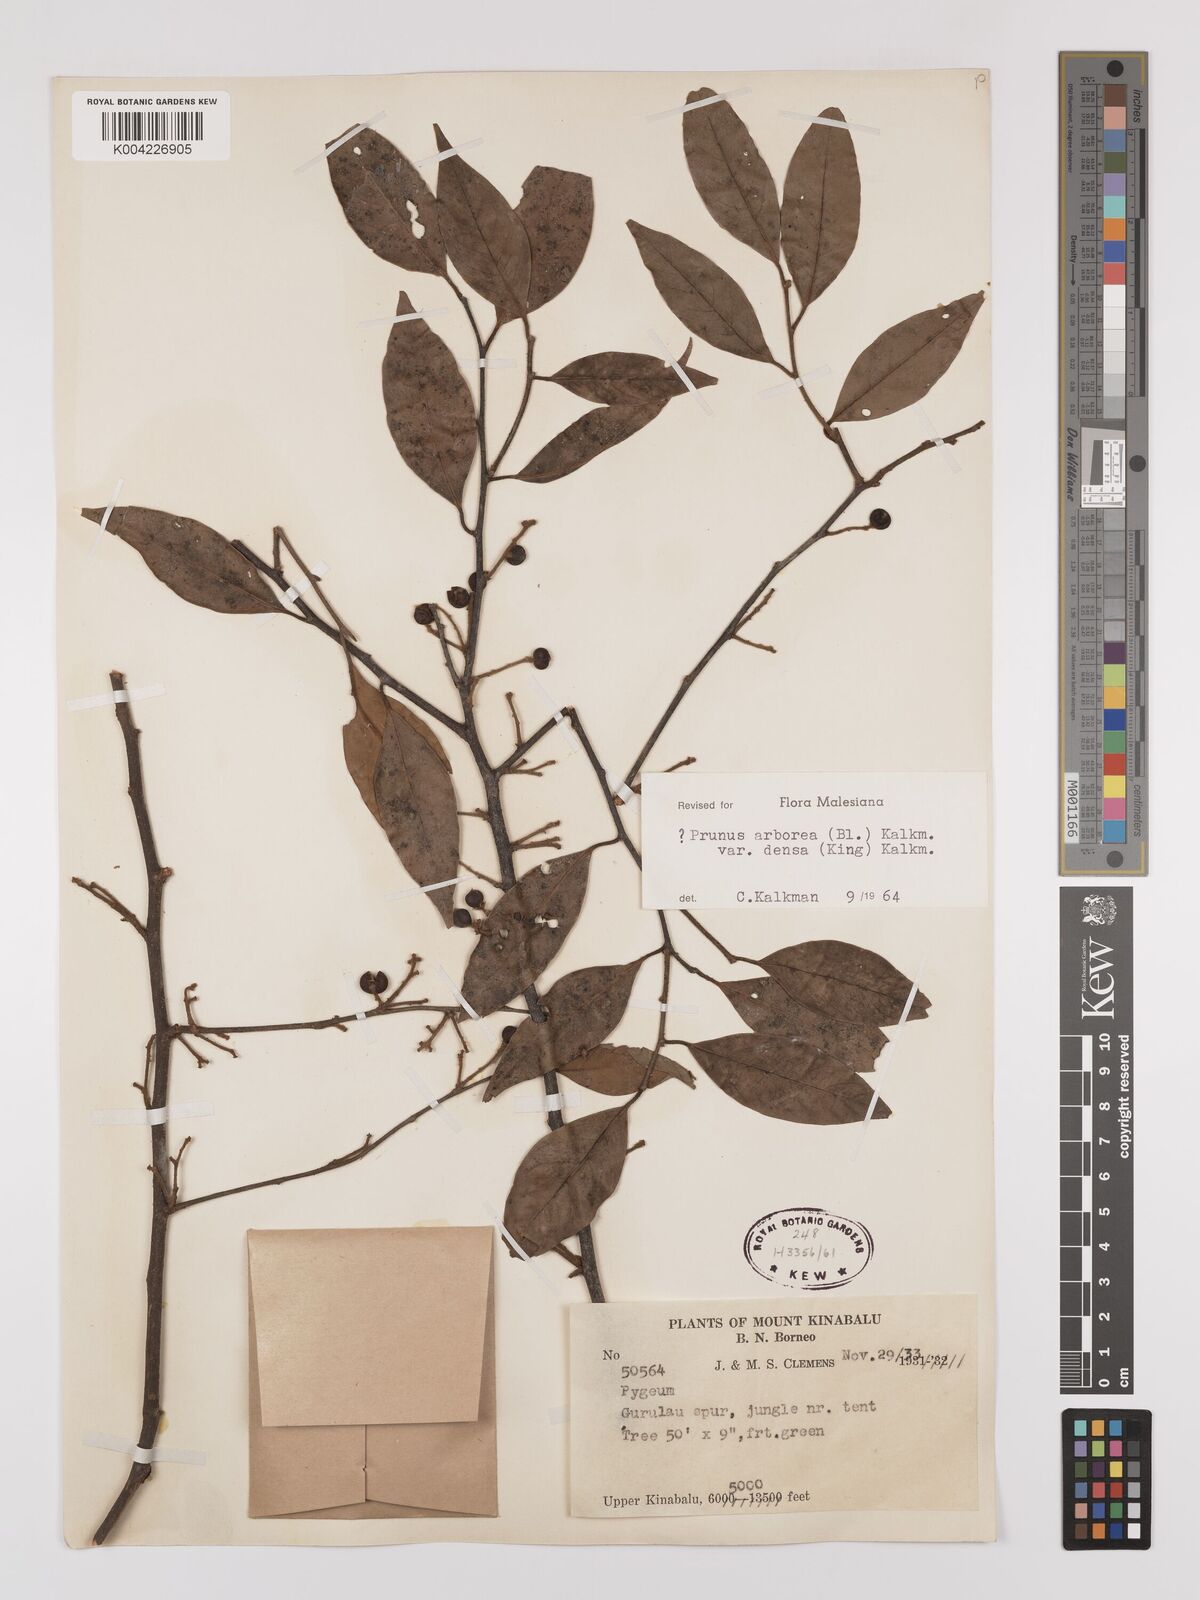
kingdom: Plantae
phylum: Tracheophyta
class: Magnoliopsida
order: Rosales
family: Rosaceae
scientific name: Rosaceae
